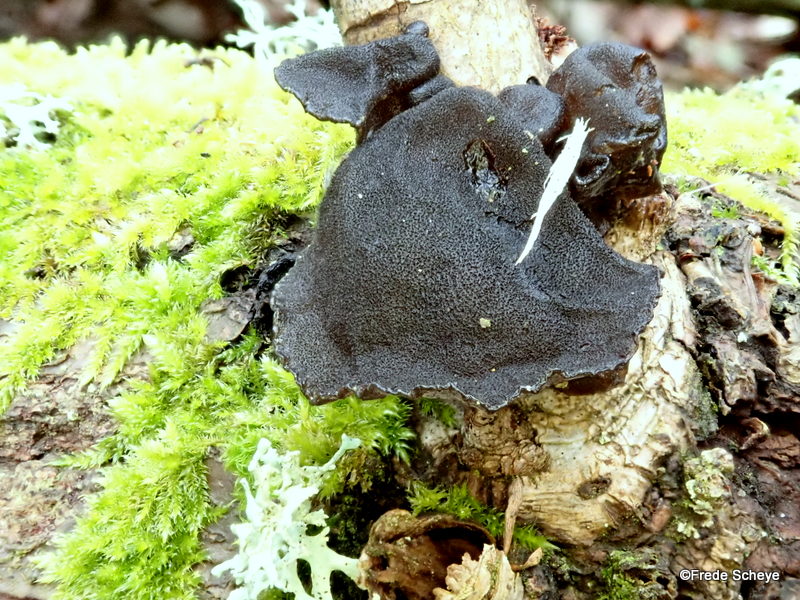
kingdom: Fungi
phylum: Basidiomycota
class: Agaricomycetes
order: Auriculariales
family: Auriculariaceae
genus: Exidia
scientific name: Exidia glandulosa
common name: ege-bævretop
